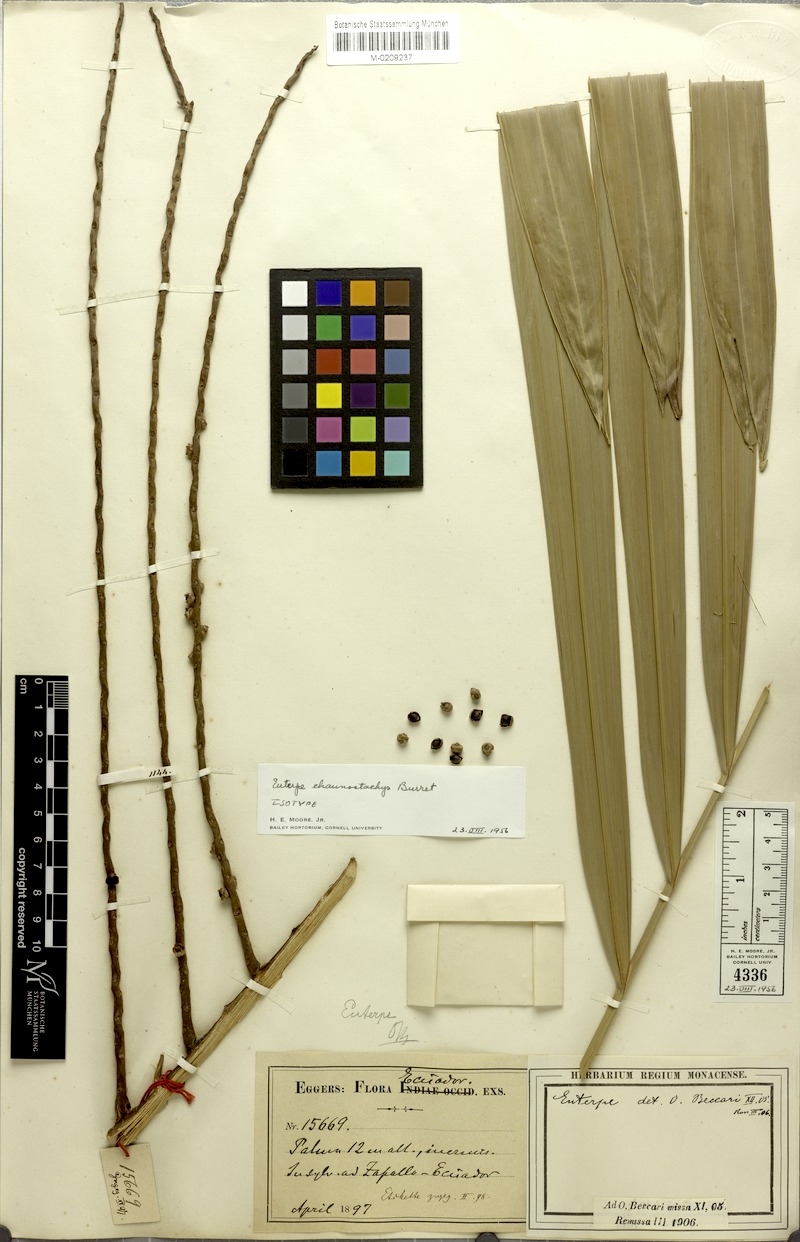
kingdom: Plantae
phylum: Tracheophyta
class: Liliopsida
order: Arecales
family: Arecaceae
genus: Prestoea
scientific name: Prestoea acuminata
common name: Sierran palm
